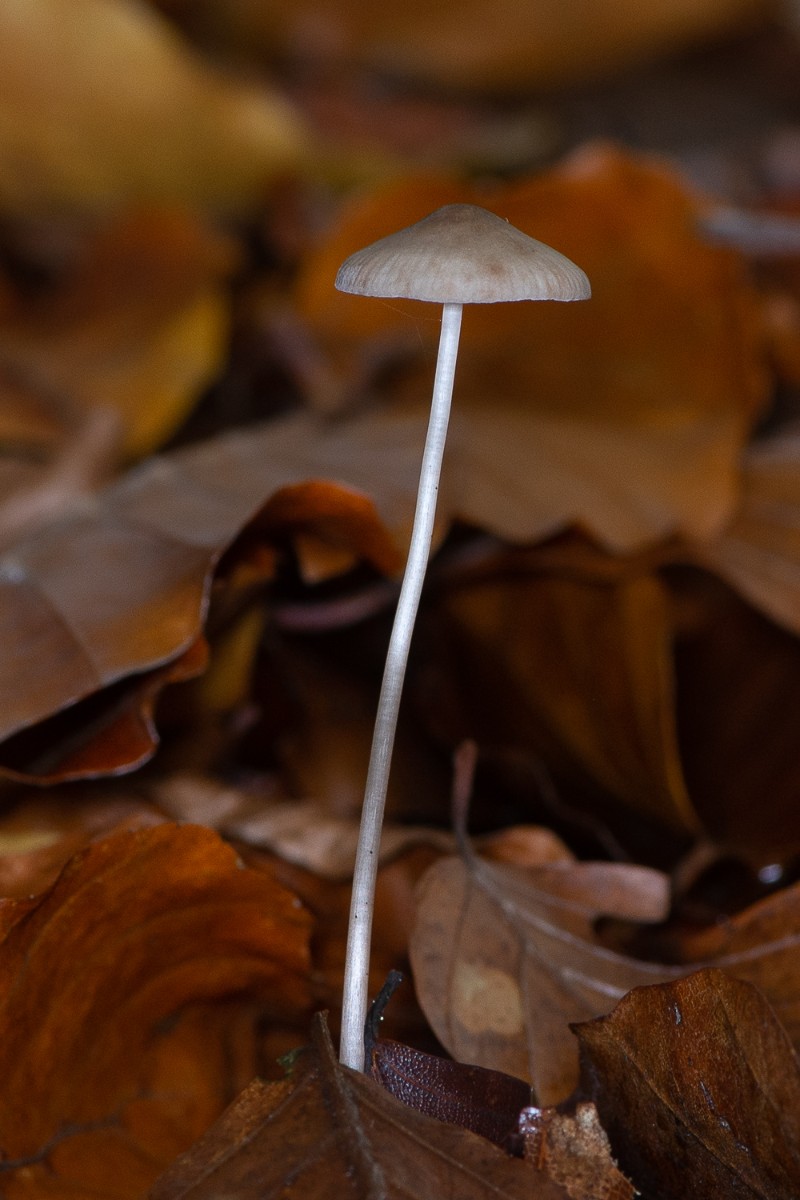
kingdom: Fungi
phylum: Basidiomycota
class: Agaricomycetes
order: Agaricales
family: Mycenaceae
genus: Mycena
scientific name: Mycena vitilis
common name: blankstokket huesvamp
